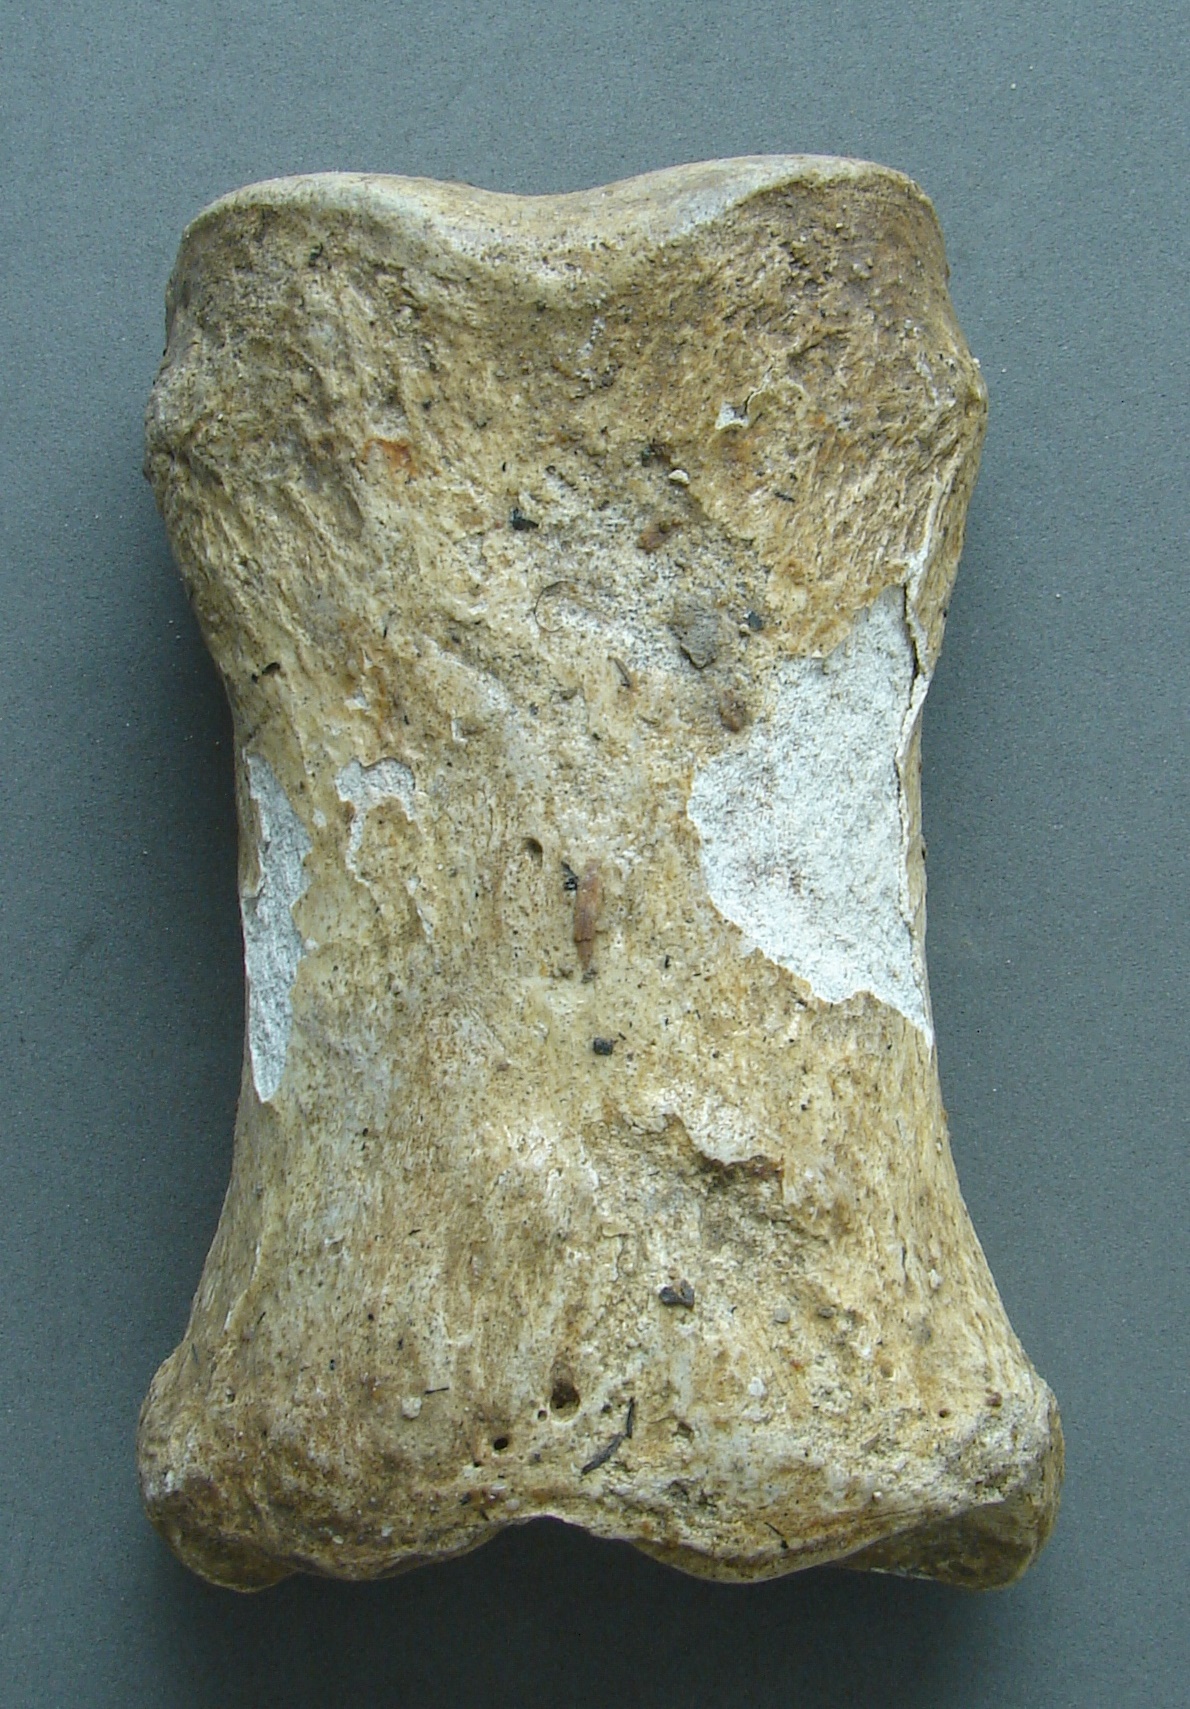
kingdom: Animalia
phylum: Chordata
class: Mammalia
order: Perissodactyla
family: Equidae
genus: Equus
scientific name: Equus
